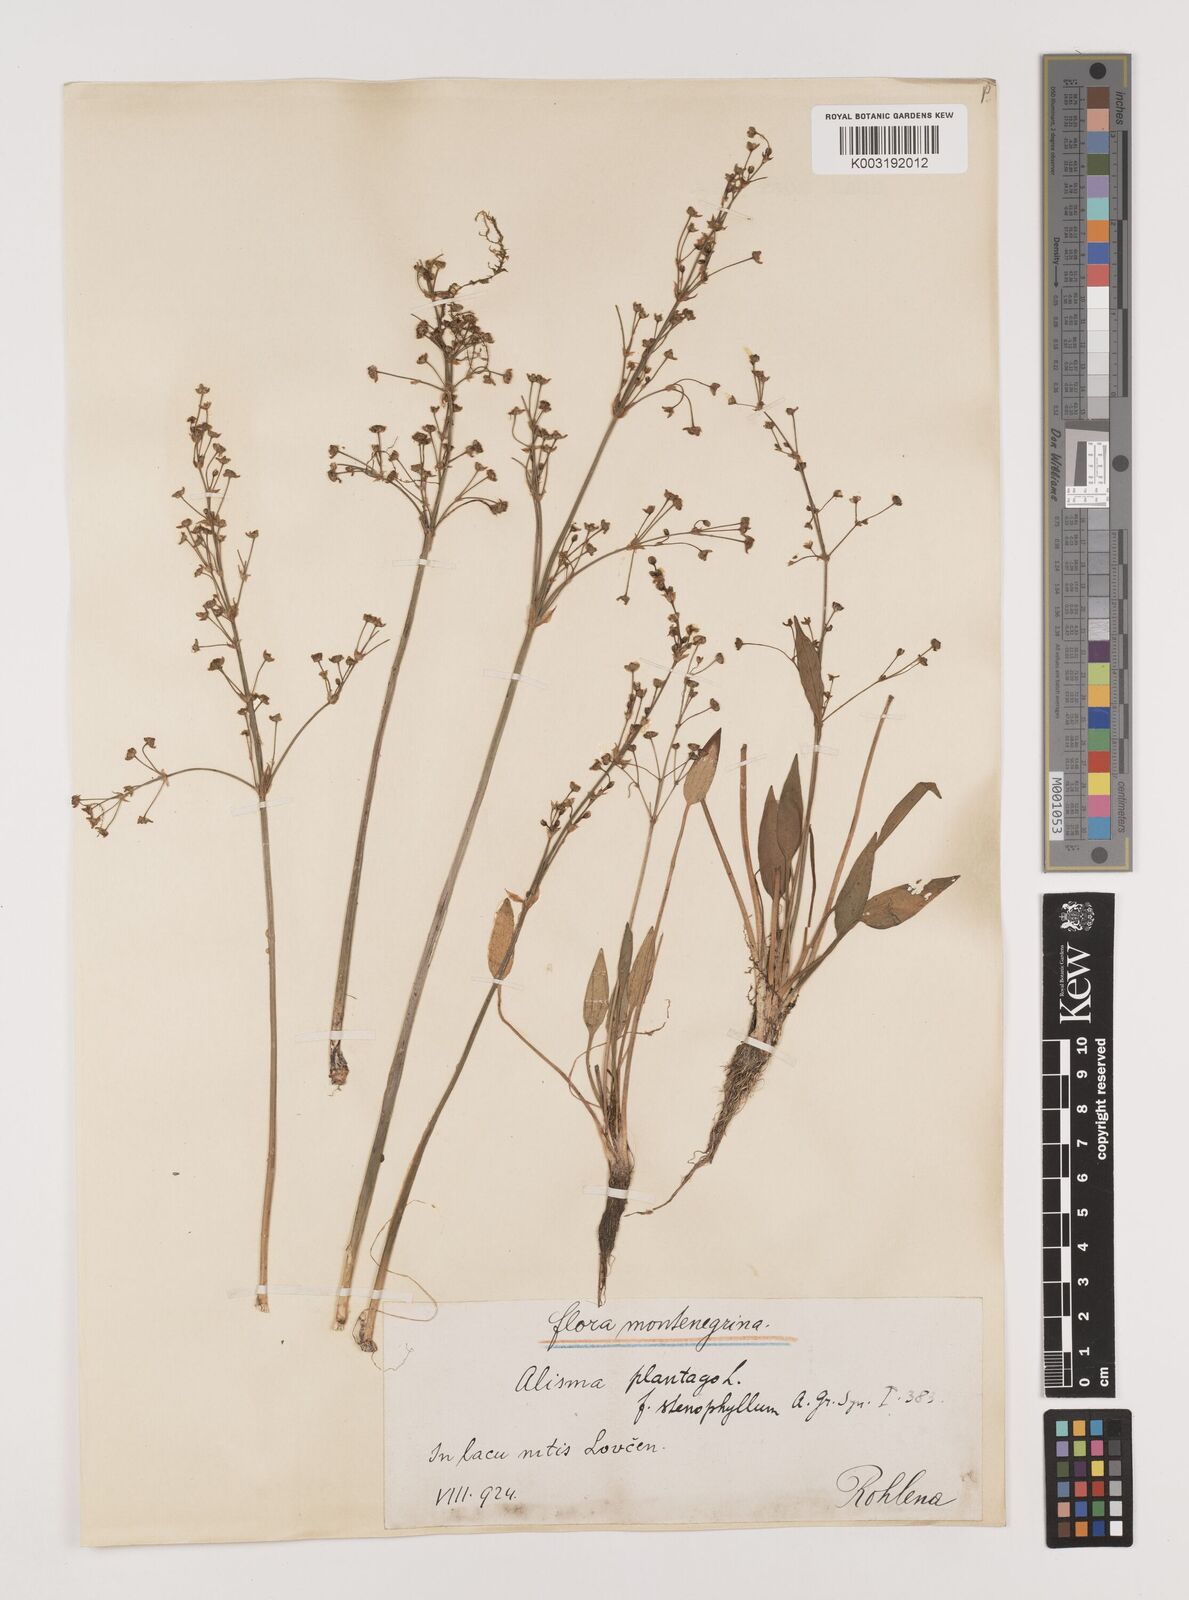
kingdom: Plantae
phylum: Tracheophyta
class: Liliopsida
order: Alismatales
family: Alismataceae
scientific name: Alismataceae
